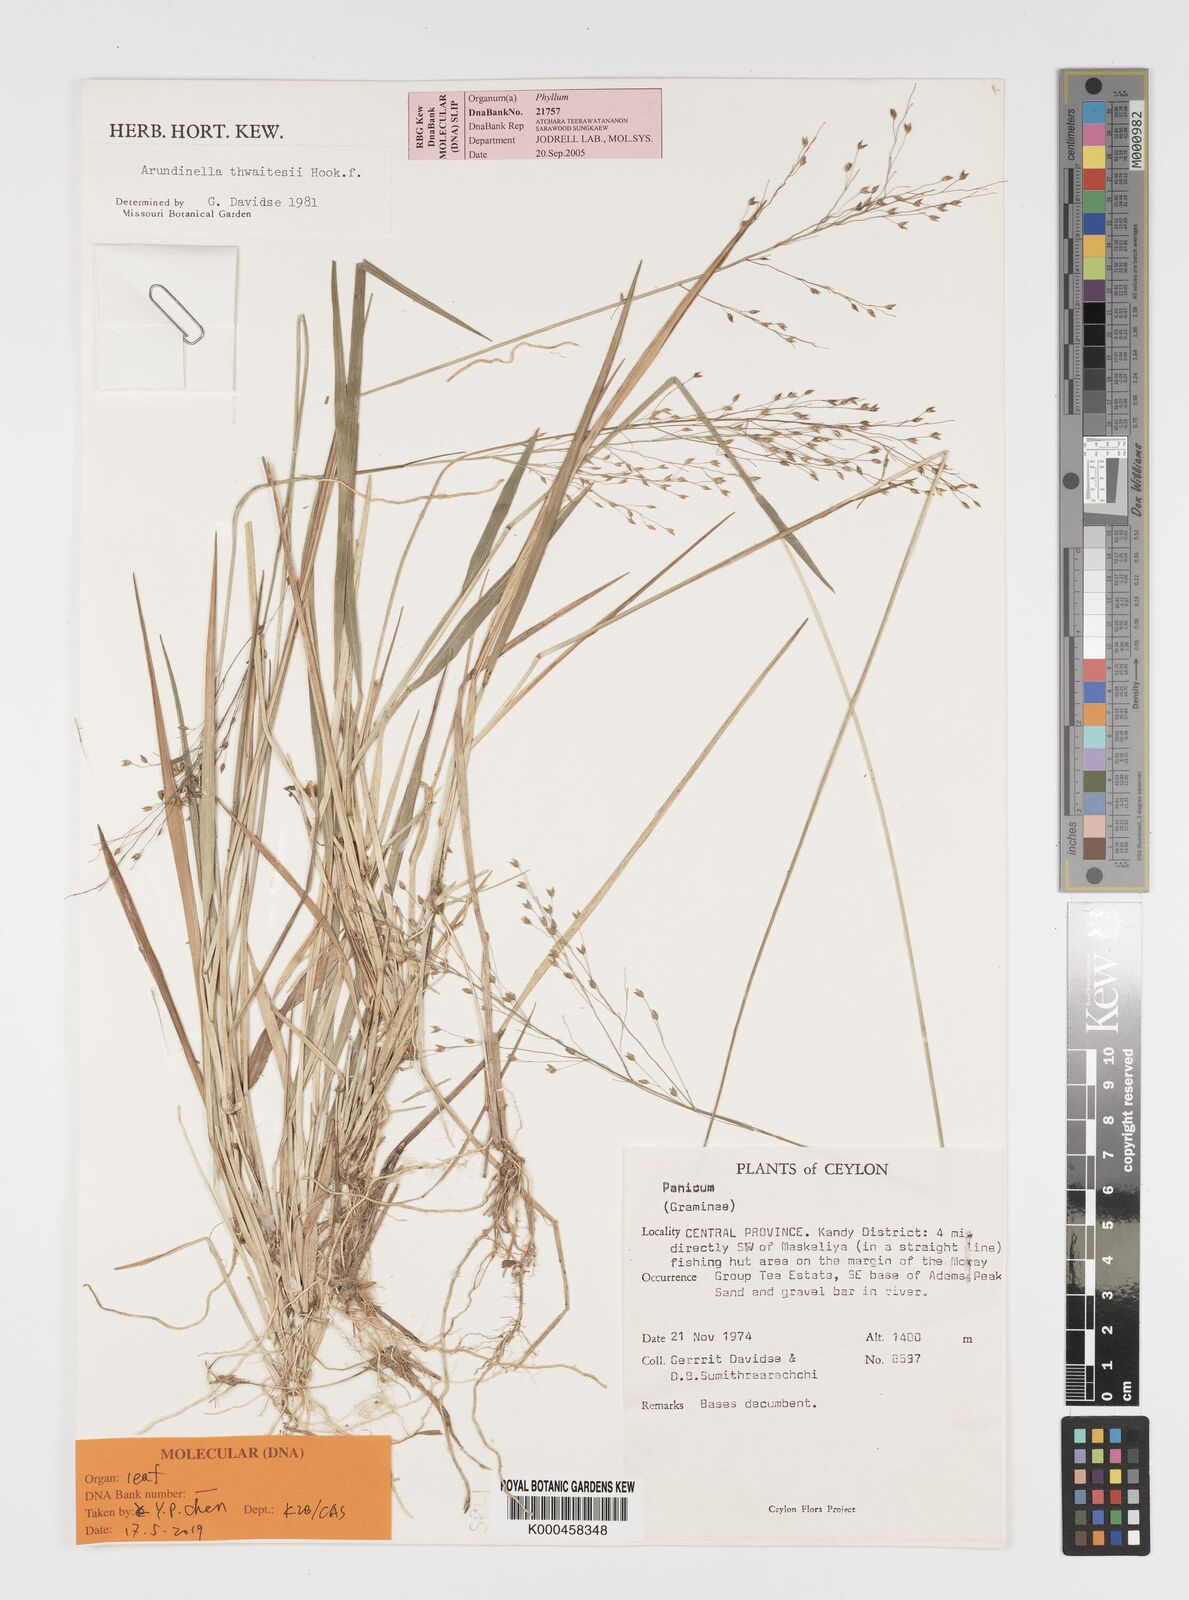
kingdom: Plantae
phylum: Tracheophyta
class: Liliopsida
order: Poales
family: Poaceae
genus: Arundinella
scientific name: Arundinella thwaitesii
